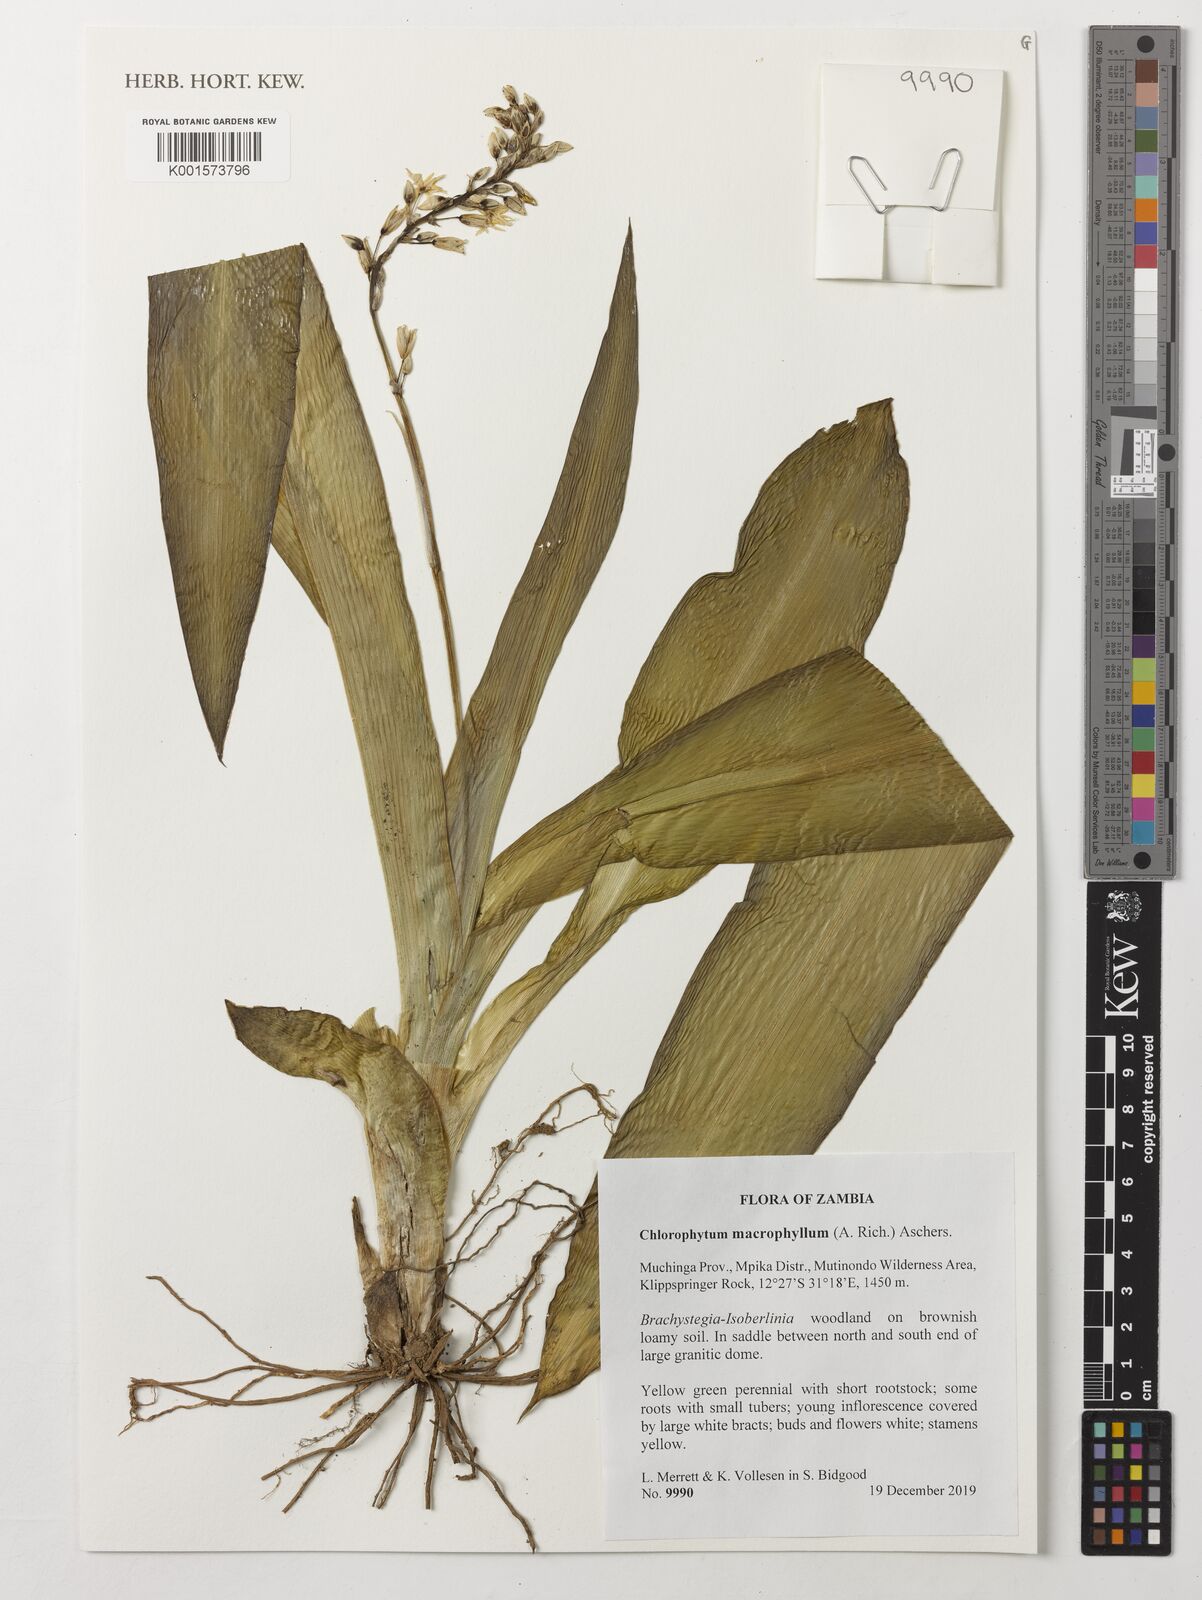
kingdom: Plantae
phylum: Tracheophyta
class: Liliopsida
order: Asparagales
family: Asparagaceae
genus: Chlorophytum
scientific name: Chlorophytum macrophyllum
